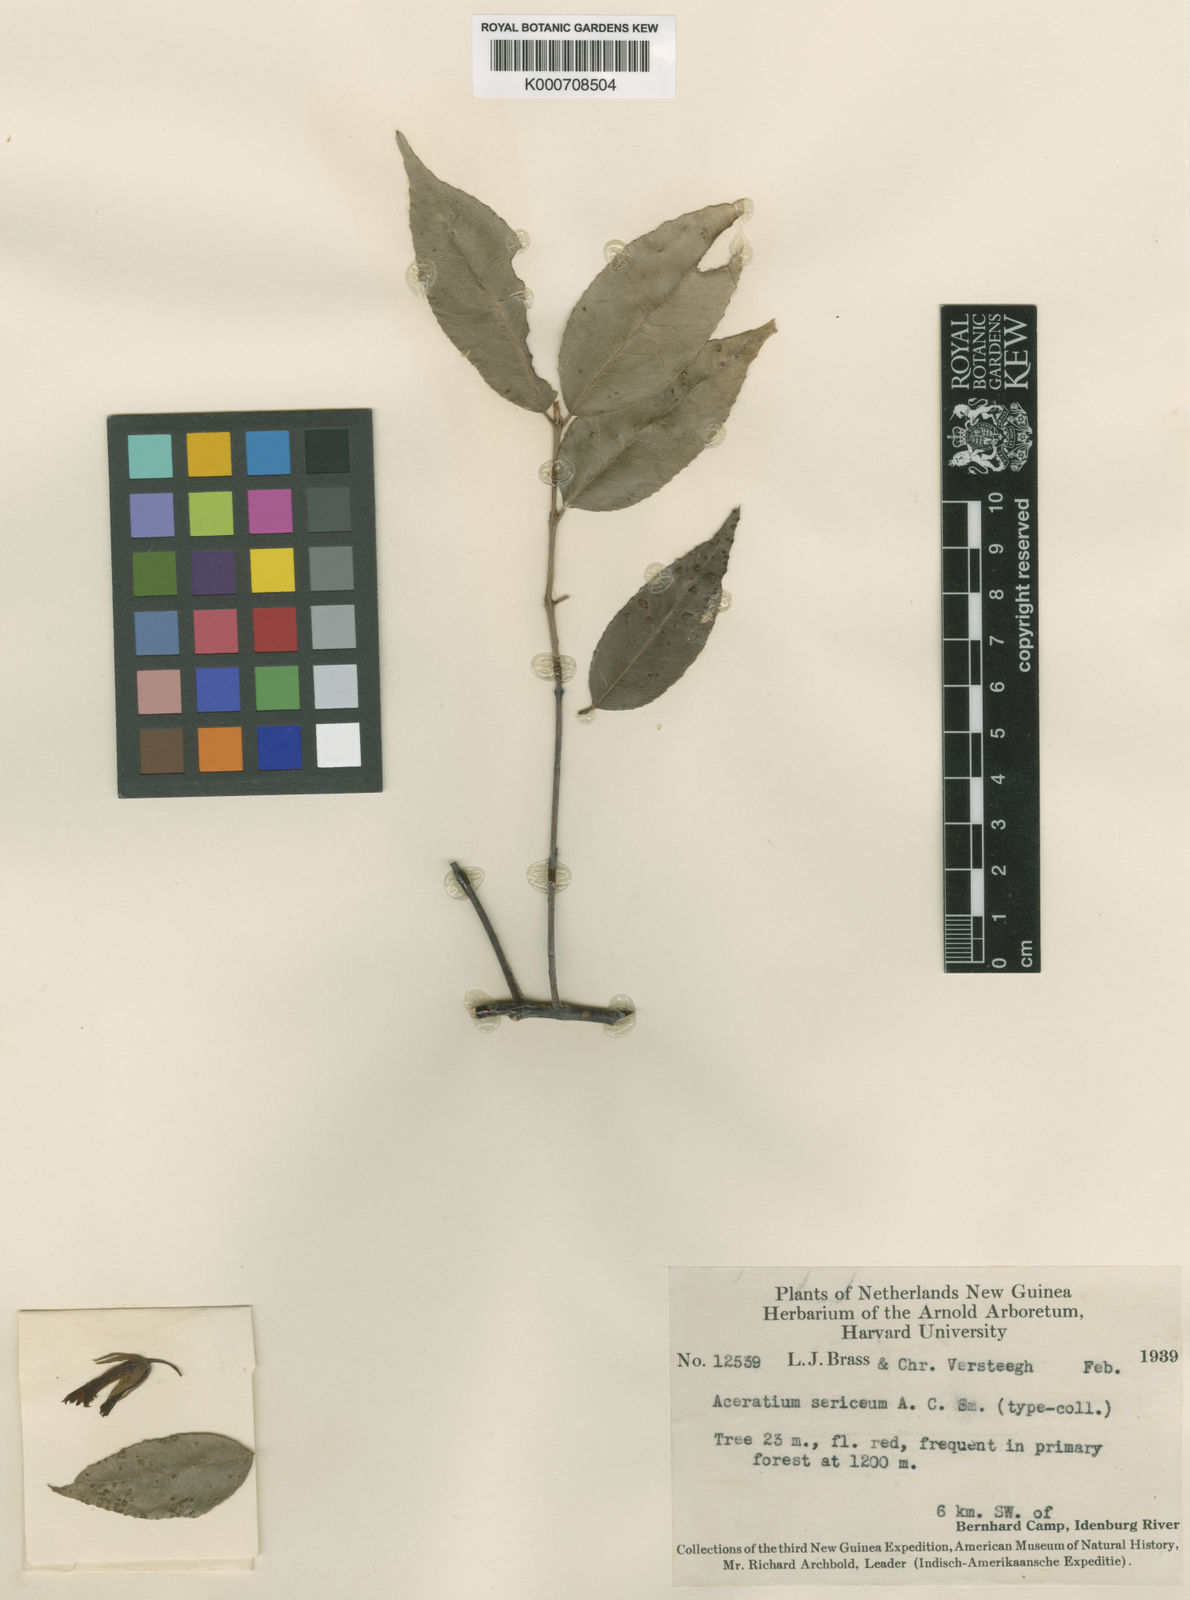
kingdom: Plantae
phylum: Tracheophyta
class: Magnoliopsida
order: Oxalidales
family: Elaeocarpaceae
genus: Aceratium
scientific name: Aceratium sericeum
